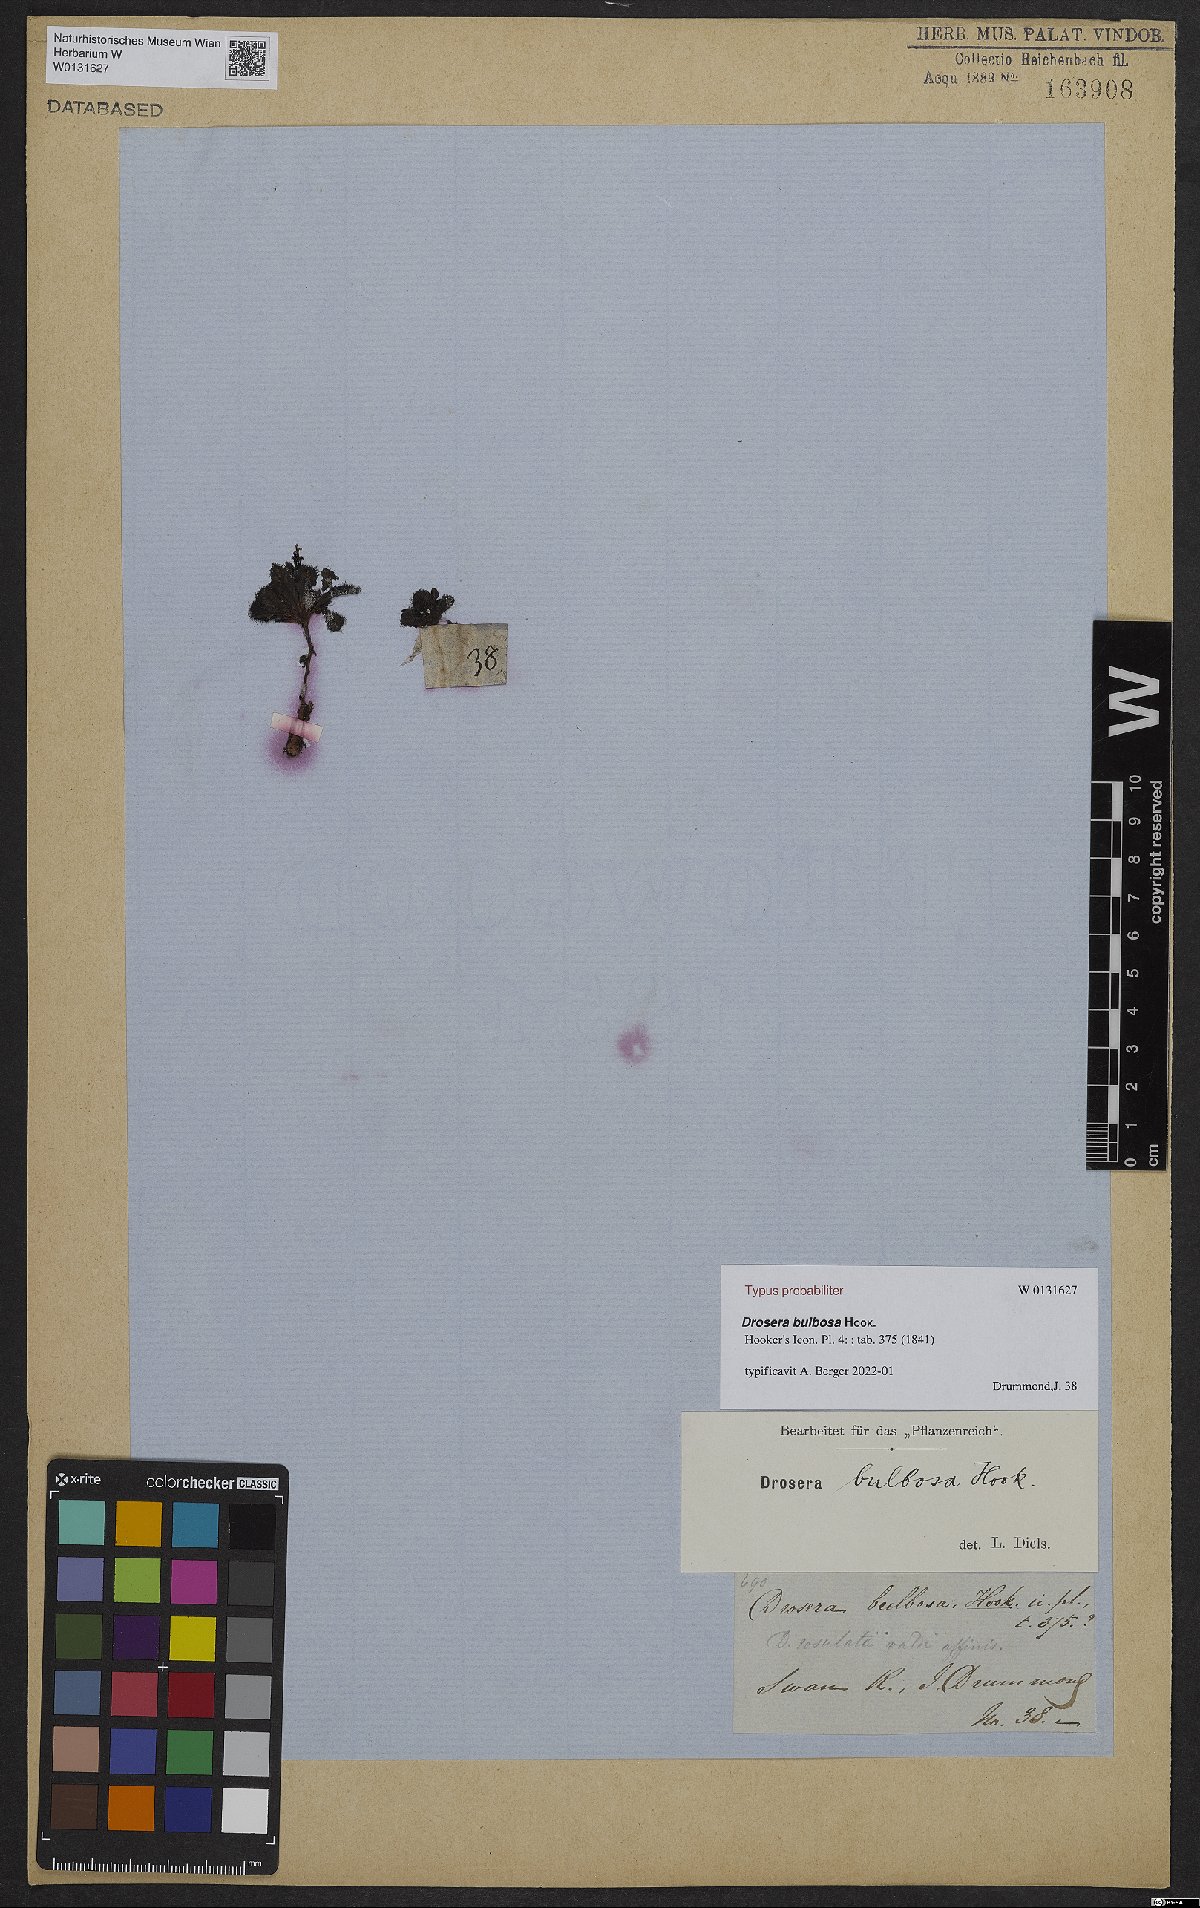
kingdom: Plantae
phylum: Tracheophyta
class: Magnoliopsida
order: Caryophyllales
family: Droseraceae
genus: Drosera
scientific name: Drosera bulbosa
